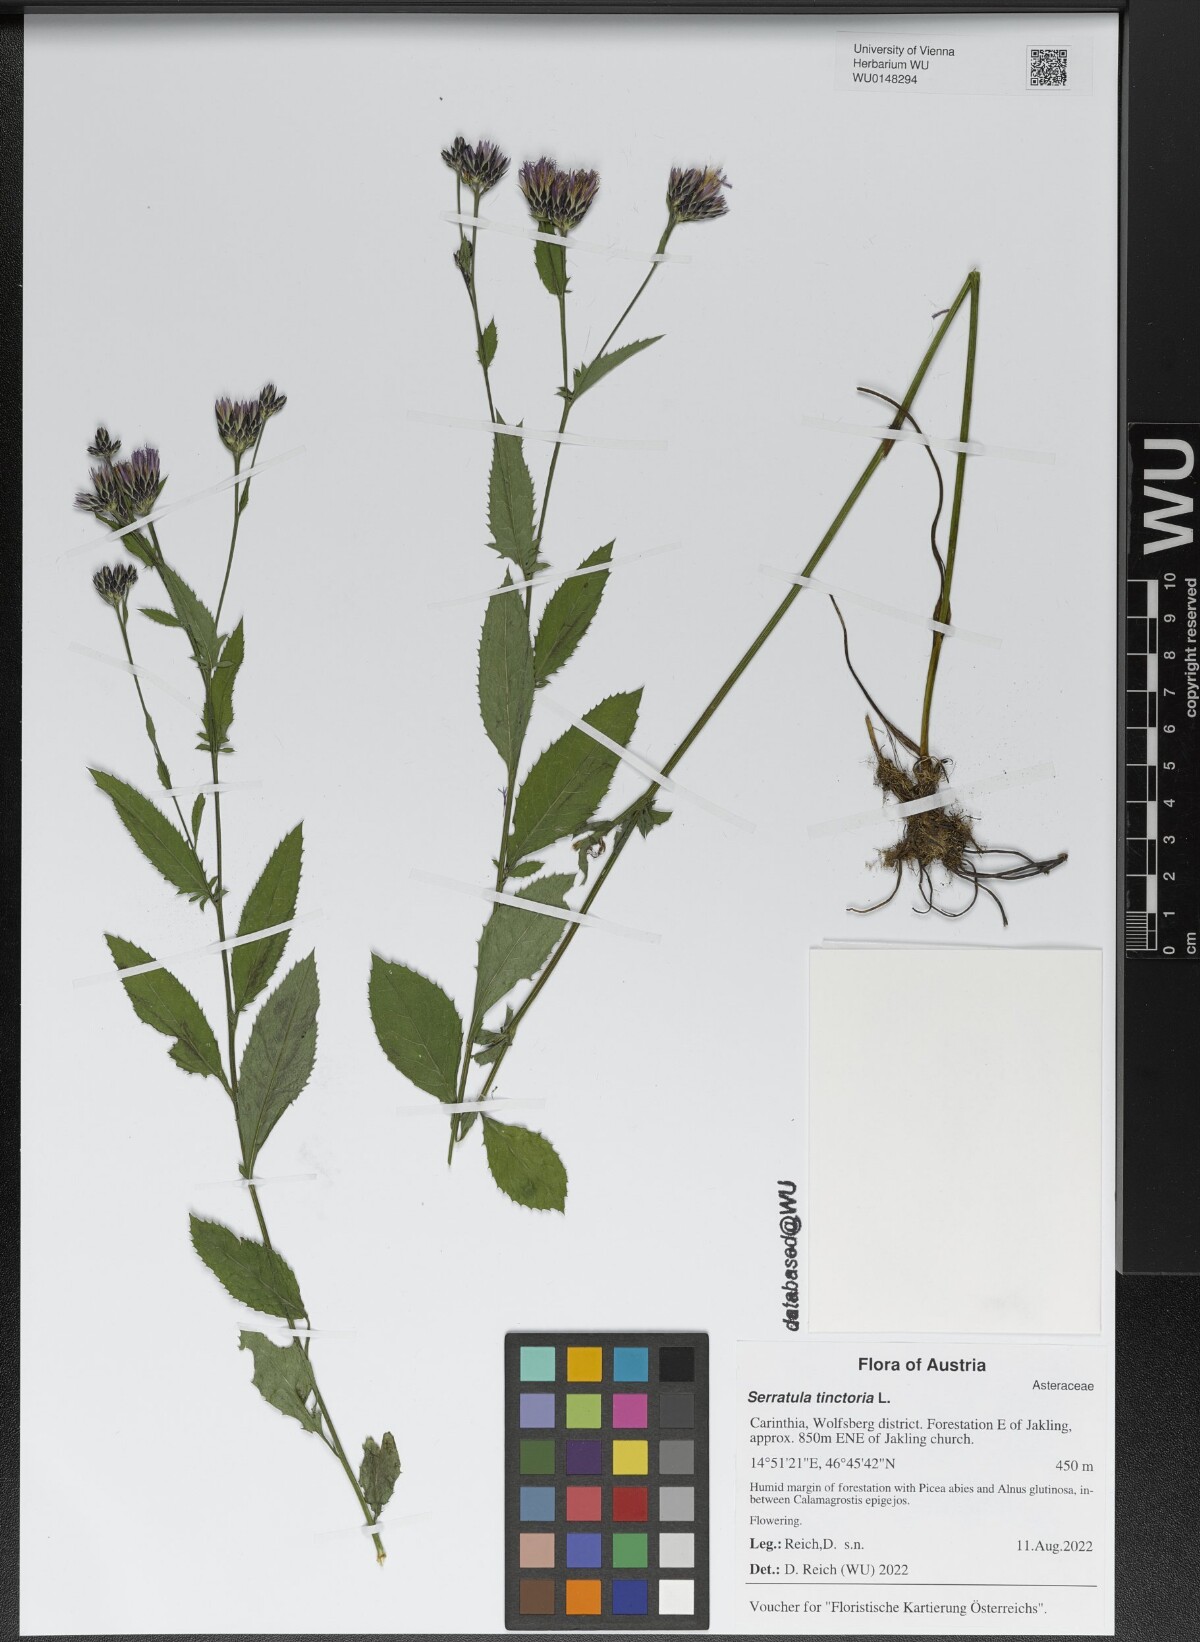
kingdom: Plantae
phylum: Tracheophyta
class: Magnoliopsida
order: Asterales
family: Asteraceae
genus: Serratula
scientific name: Serratula tinctoria
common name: Saw-wort
